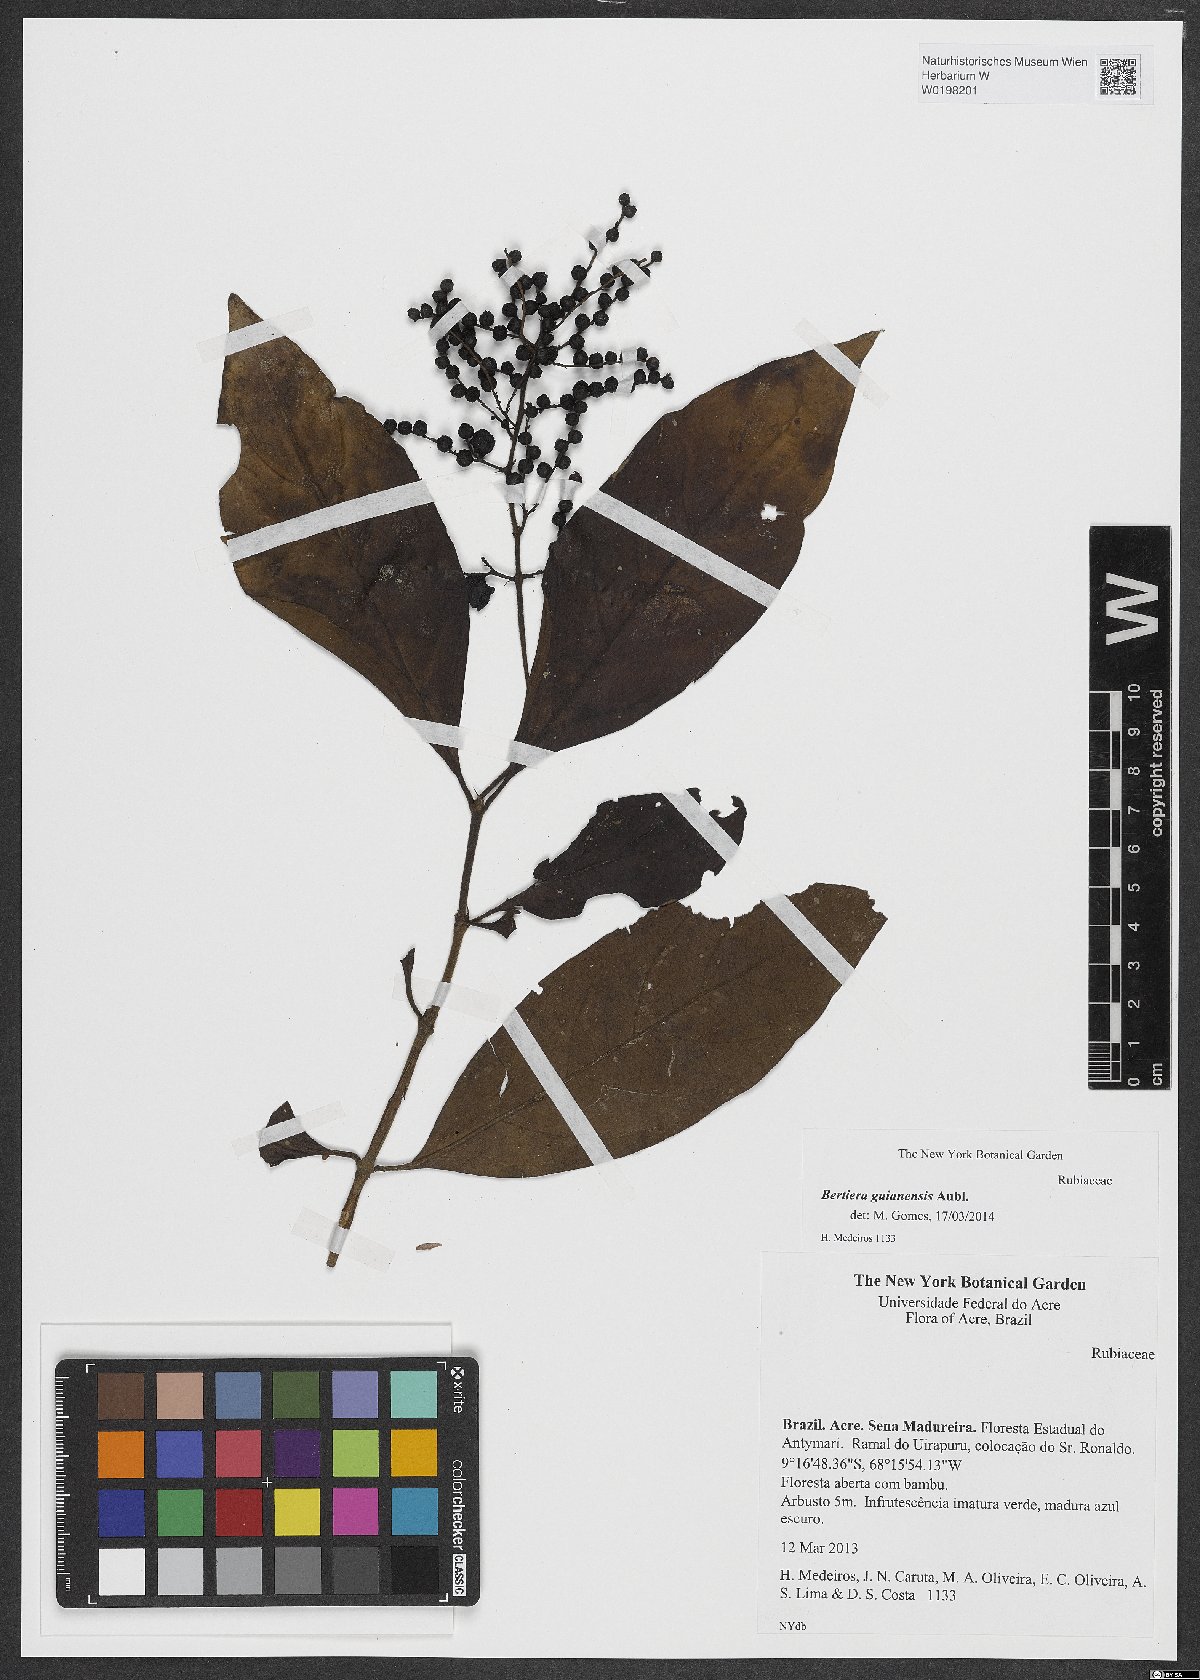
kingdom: Plantae
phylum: Tracheophyta
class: Magnoliopsida
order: Gentianales
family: Rubiaceae
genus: Bertiera
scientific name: Bertiera guianensis
